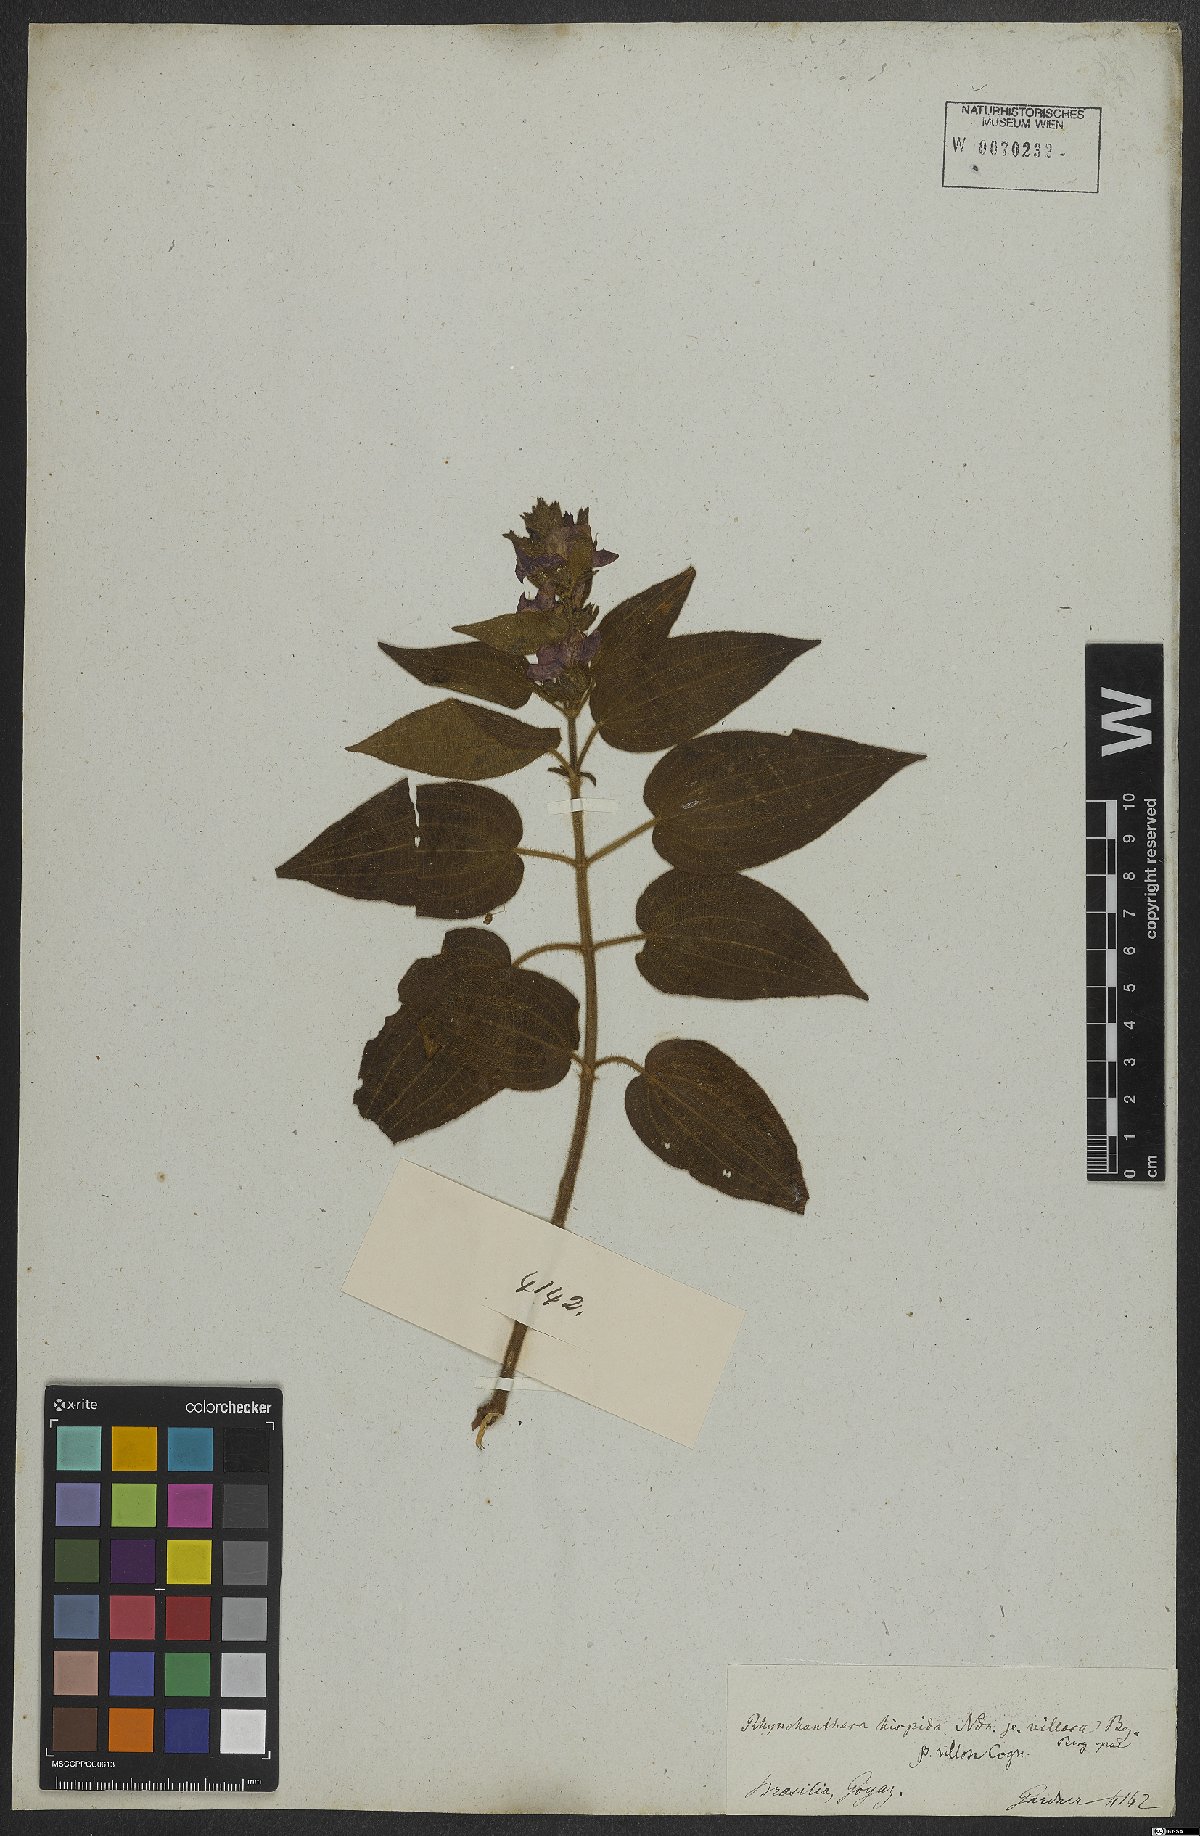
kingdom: Plantae
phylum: Tracheophyta
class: Magnoliopsida
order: Myrtales
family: Melastomataceae
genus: Rhynchanthera
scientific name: Rhynchanthera
